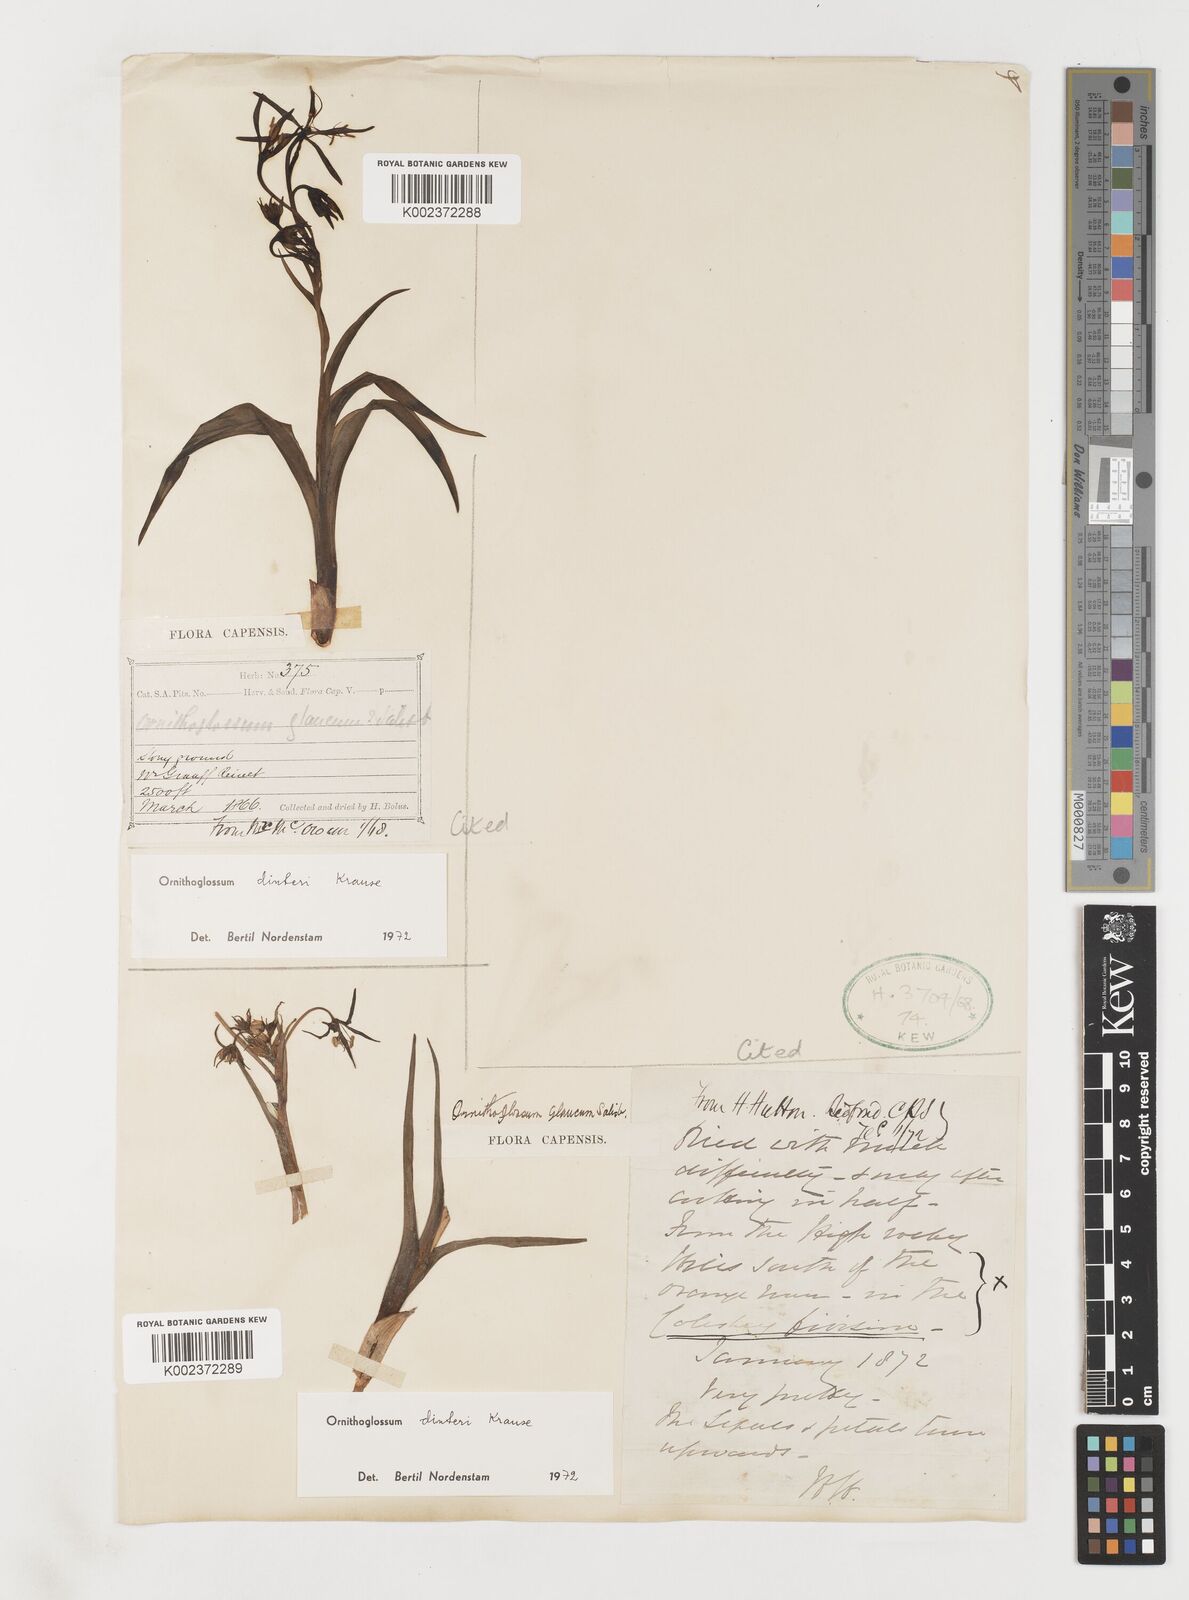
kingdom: Plantae
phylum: Tracheophyta
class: Liliopsida
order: Liliales
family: Colchicaceae
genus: Ornithoglossum
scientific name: Ornithoglossum dinteri
